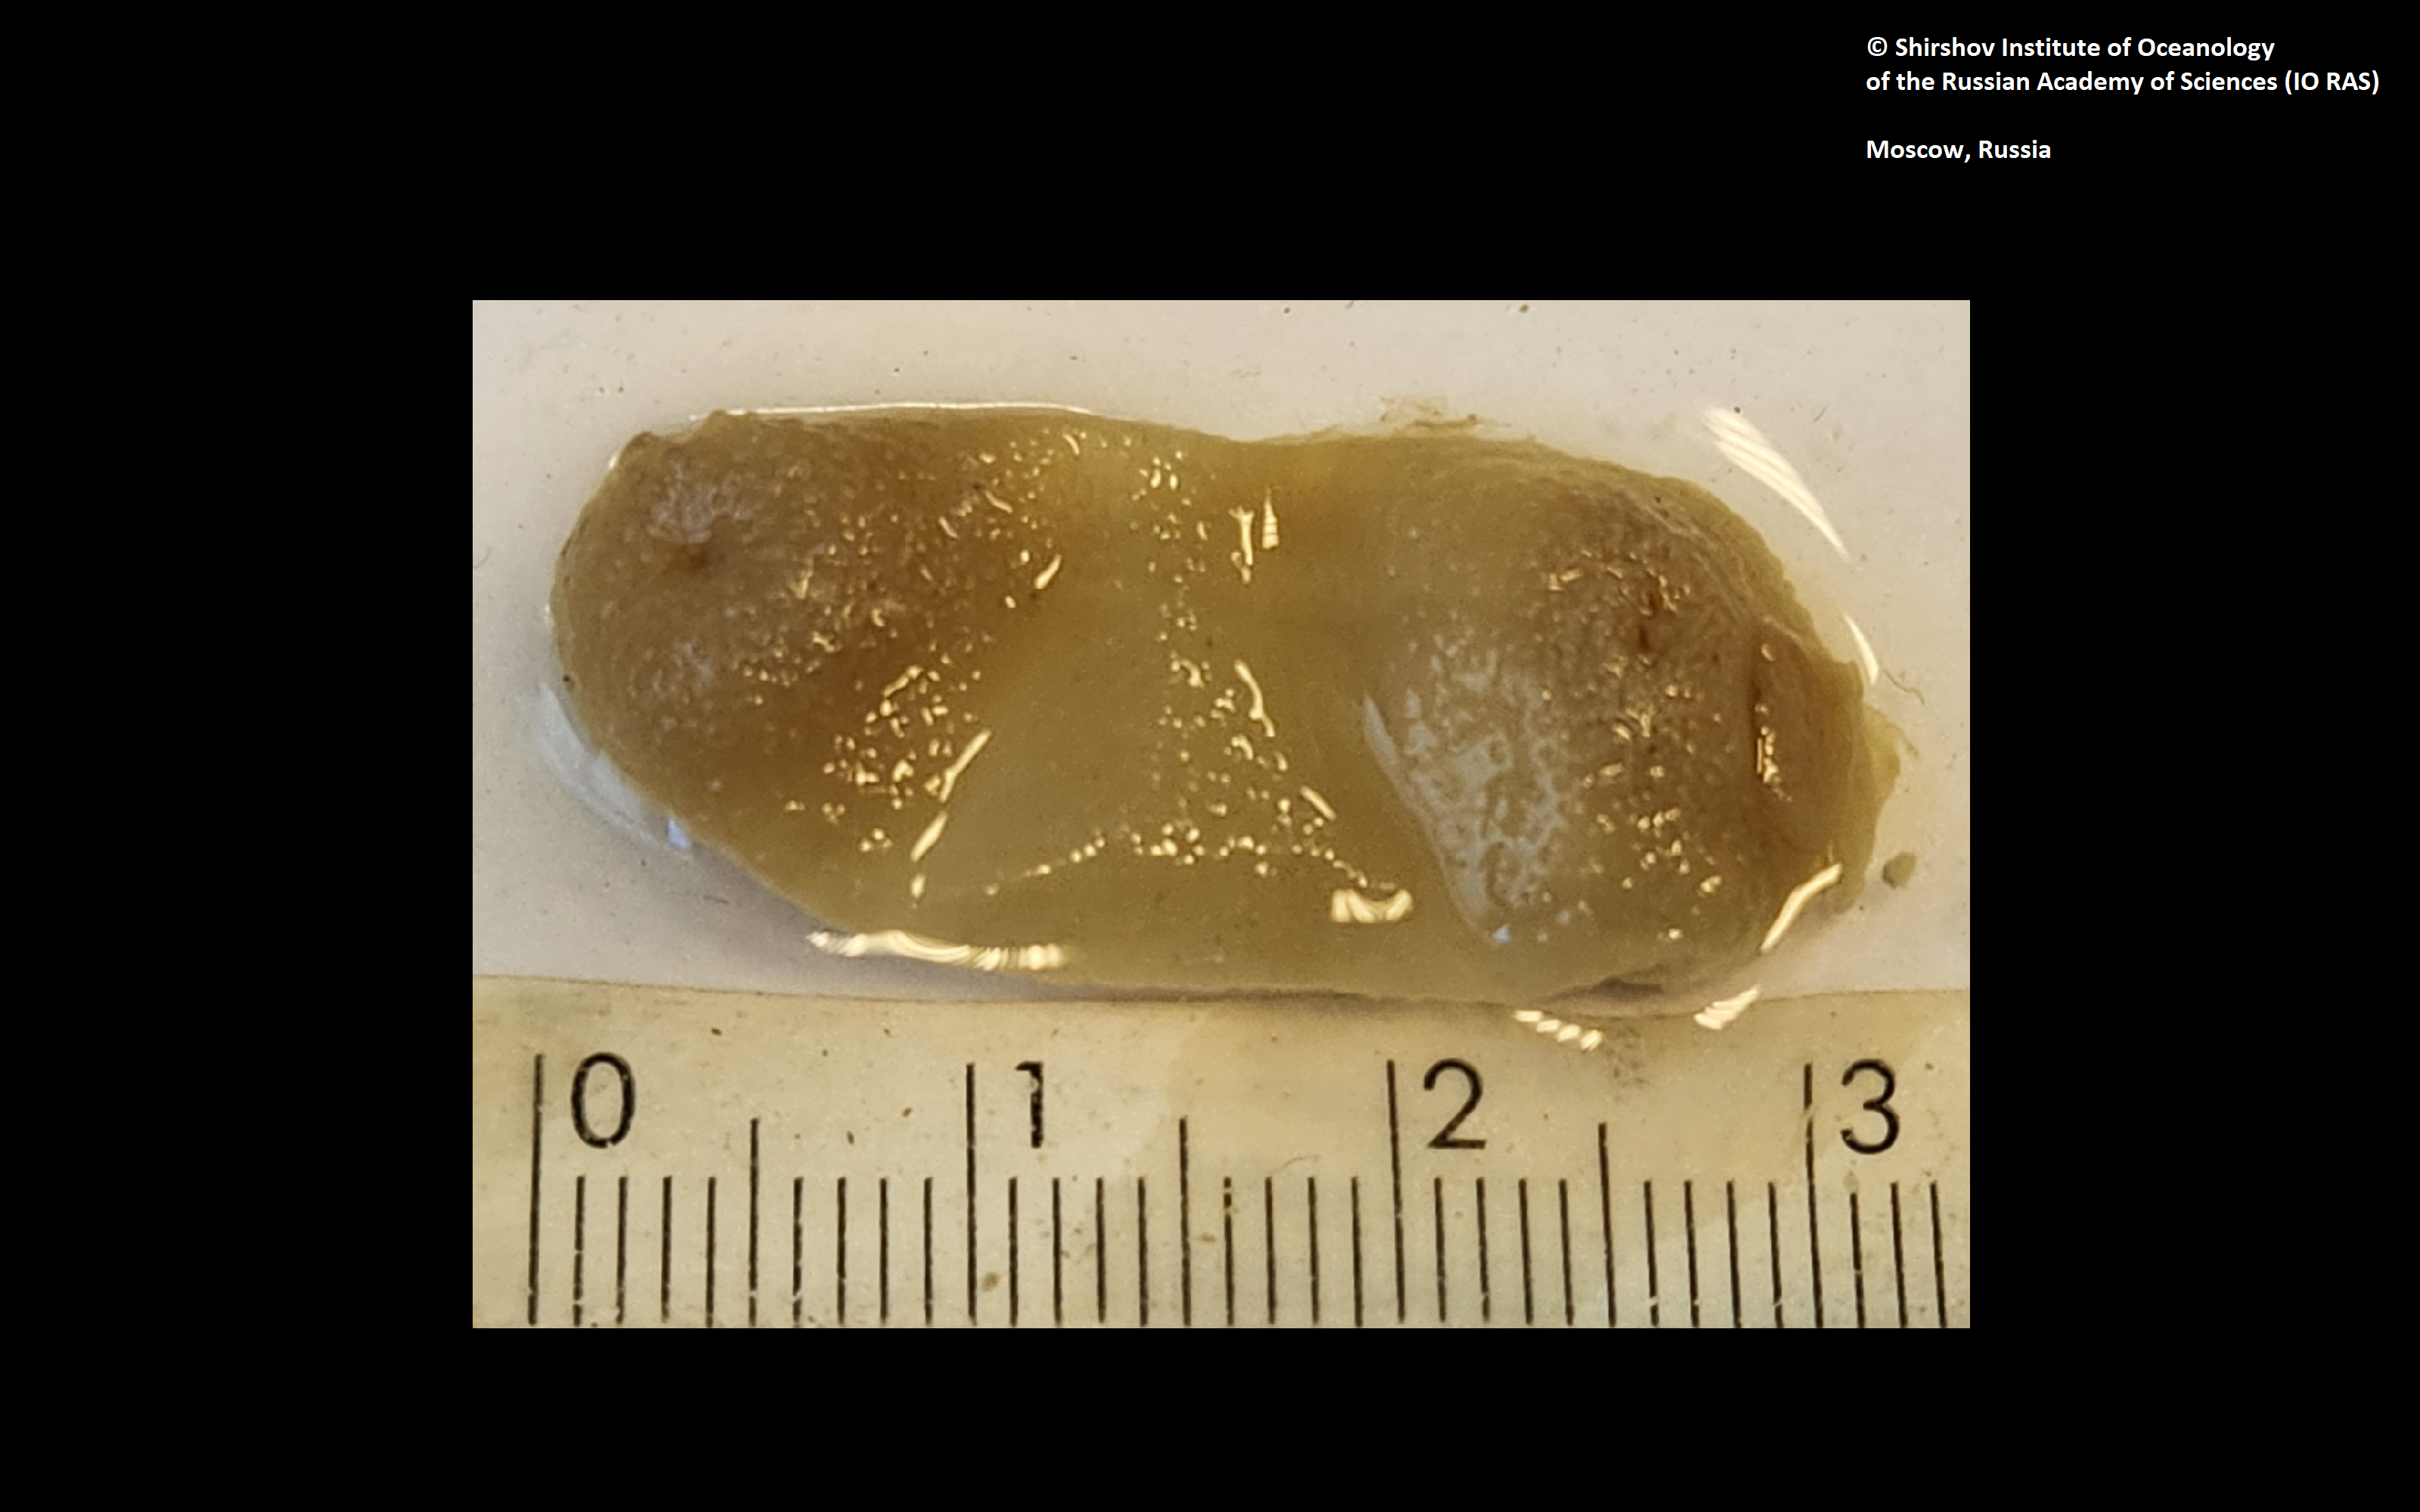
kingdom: Animalia
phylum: Annelida
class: Polychaeta
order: Echiuroidea
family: Bonelliidae
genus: Protobonellia
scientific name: Protobonellia papillosum
